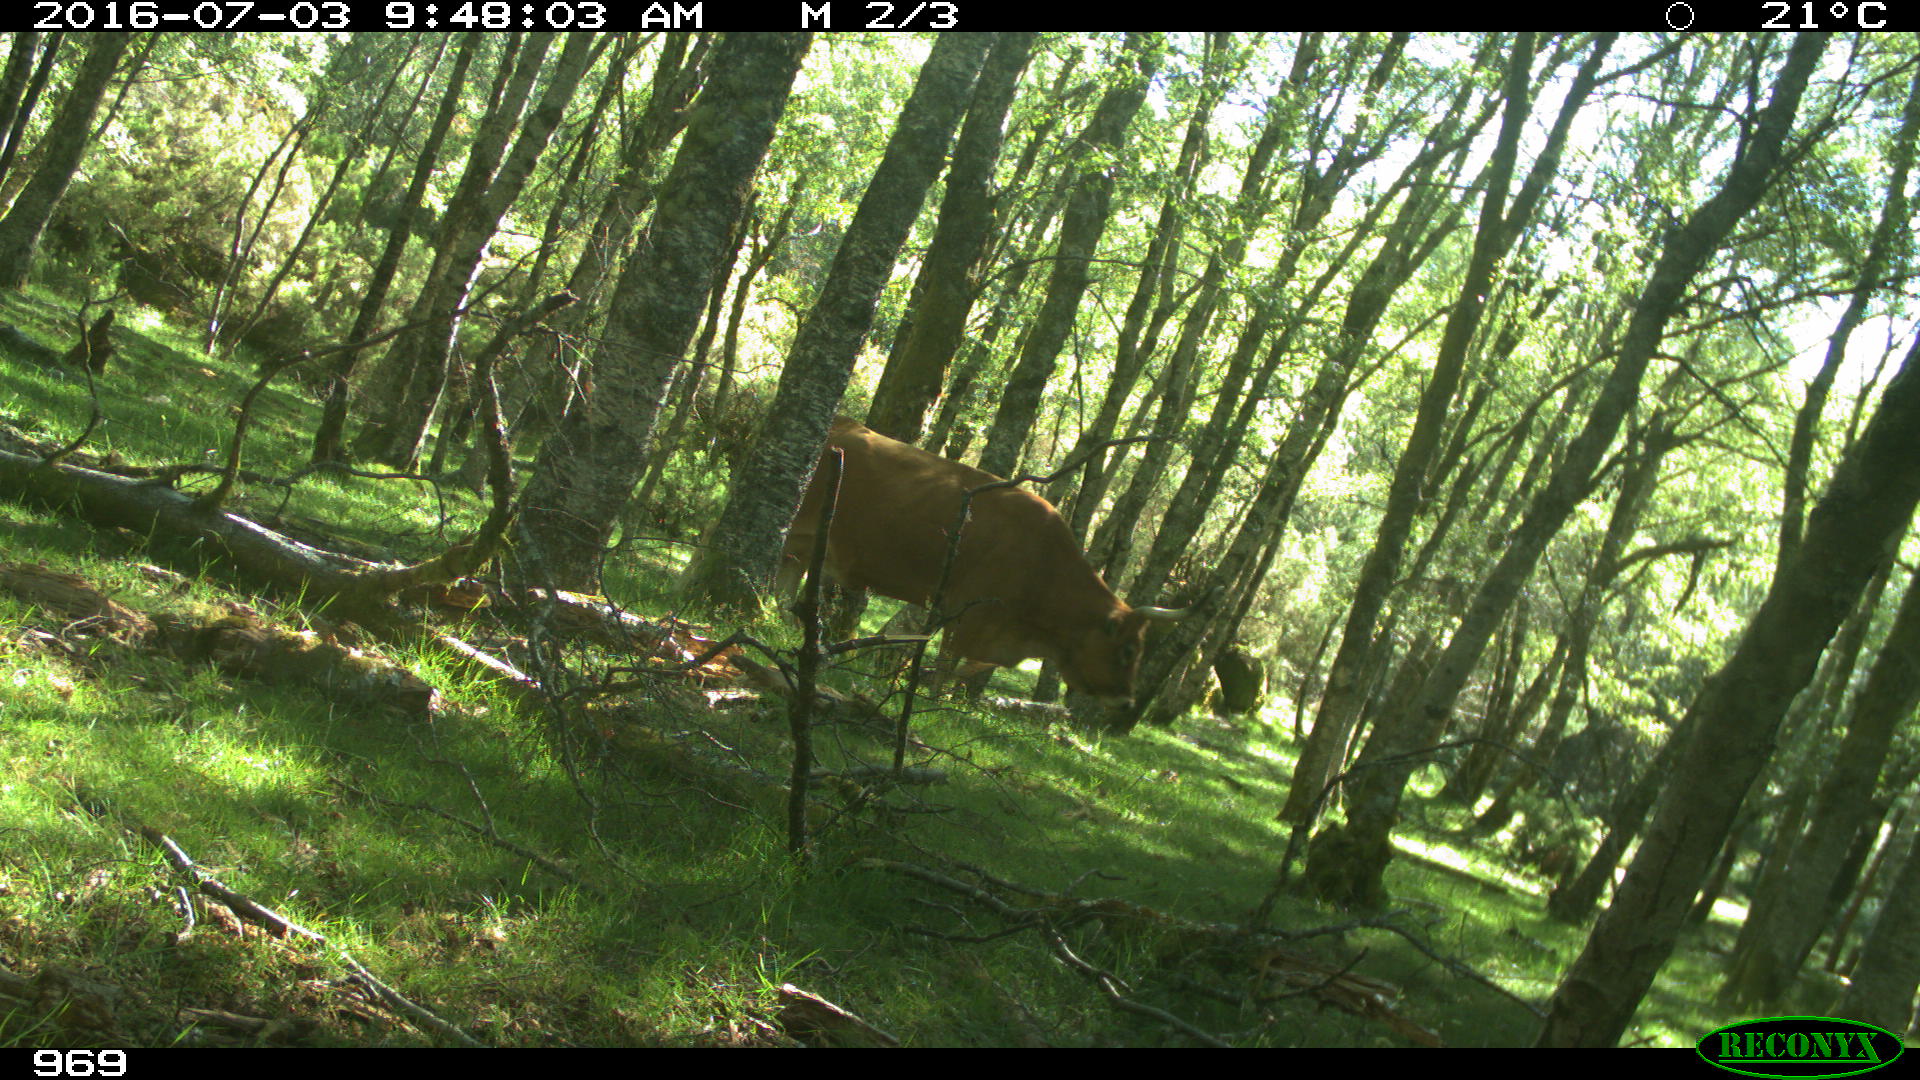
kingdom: Animalia
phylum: Chordata
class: Mammalia
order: Artiodactyla
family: Bovidae
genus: Bos
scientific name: Bos taurus
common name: Domesticated cattle
